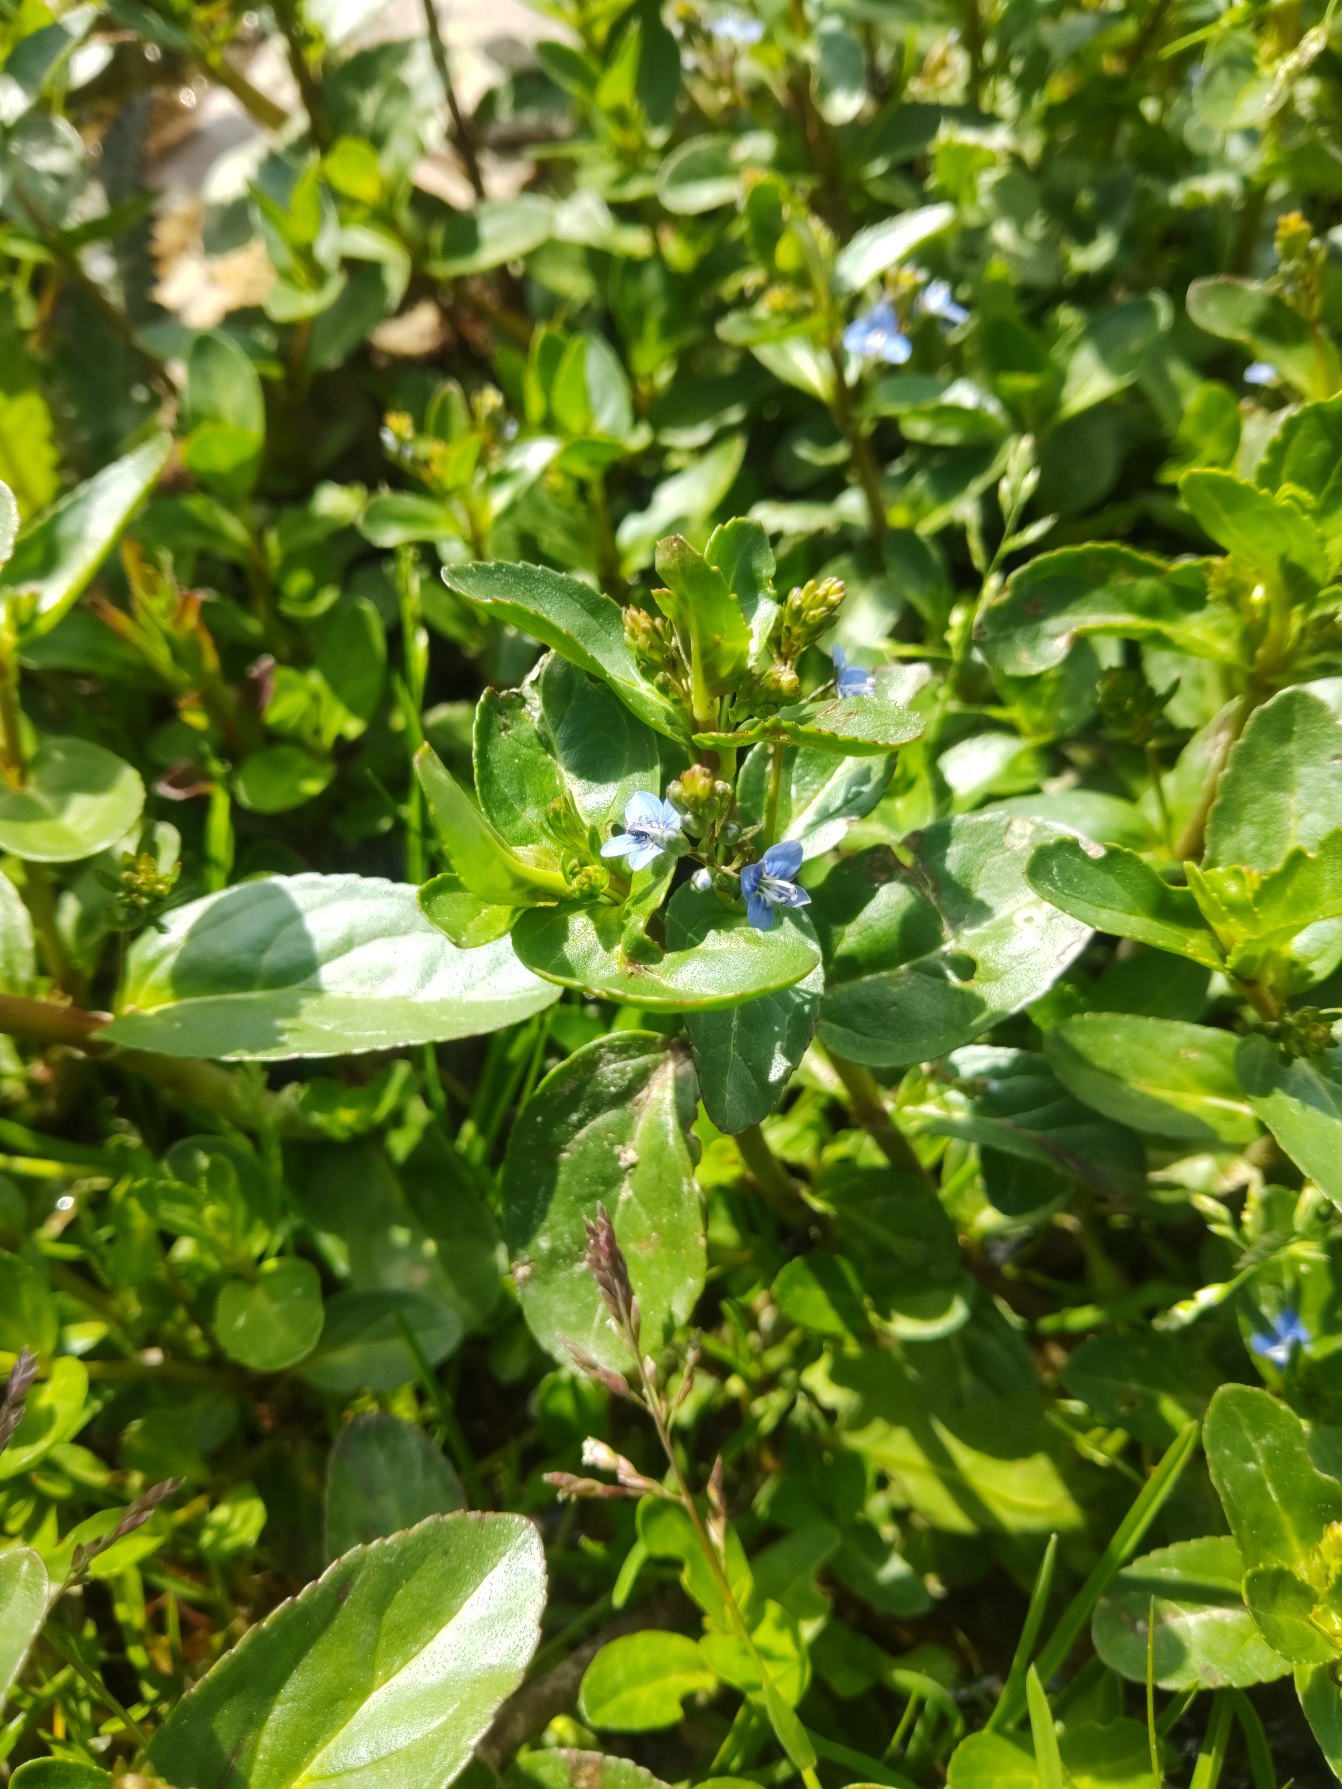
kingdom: Plantae
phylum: Tracheophyta
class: Magnoliopsida
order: Lamiales
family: Plantaginaceae
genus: Veronica
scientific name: Veronica beccabunga
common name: Tykbladet ærenpris
